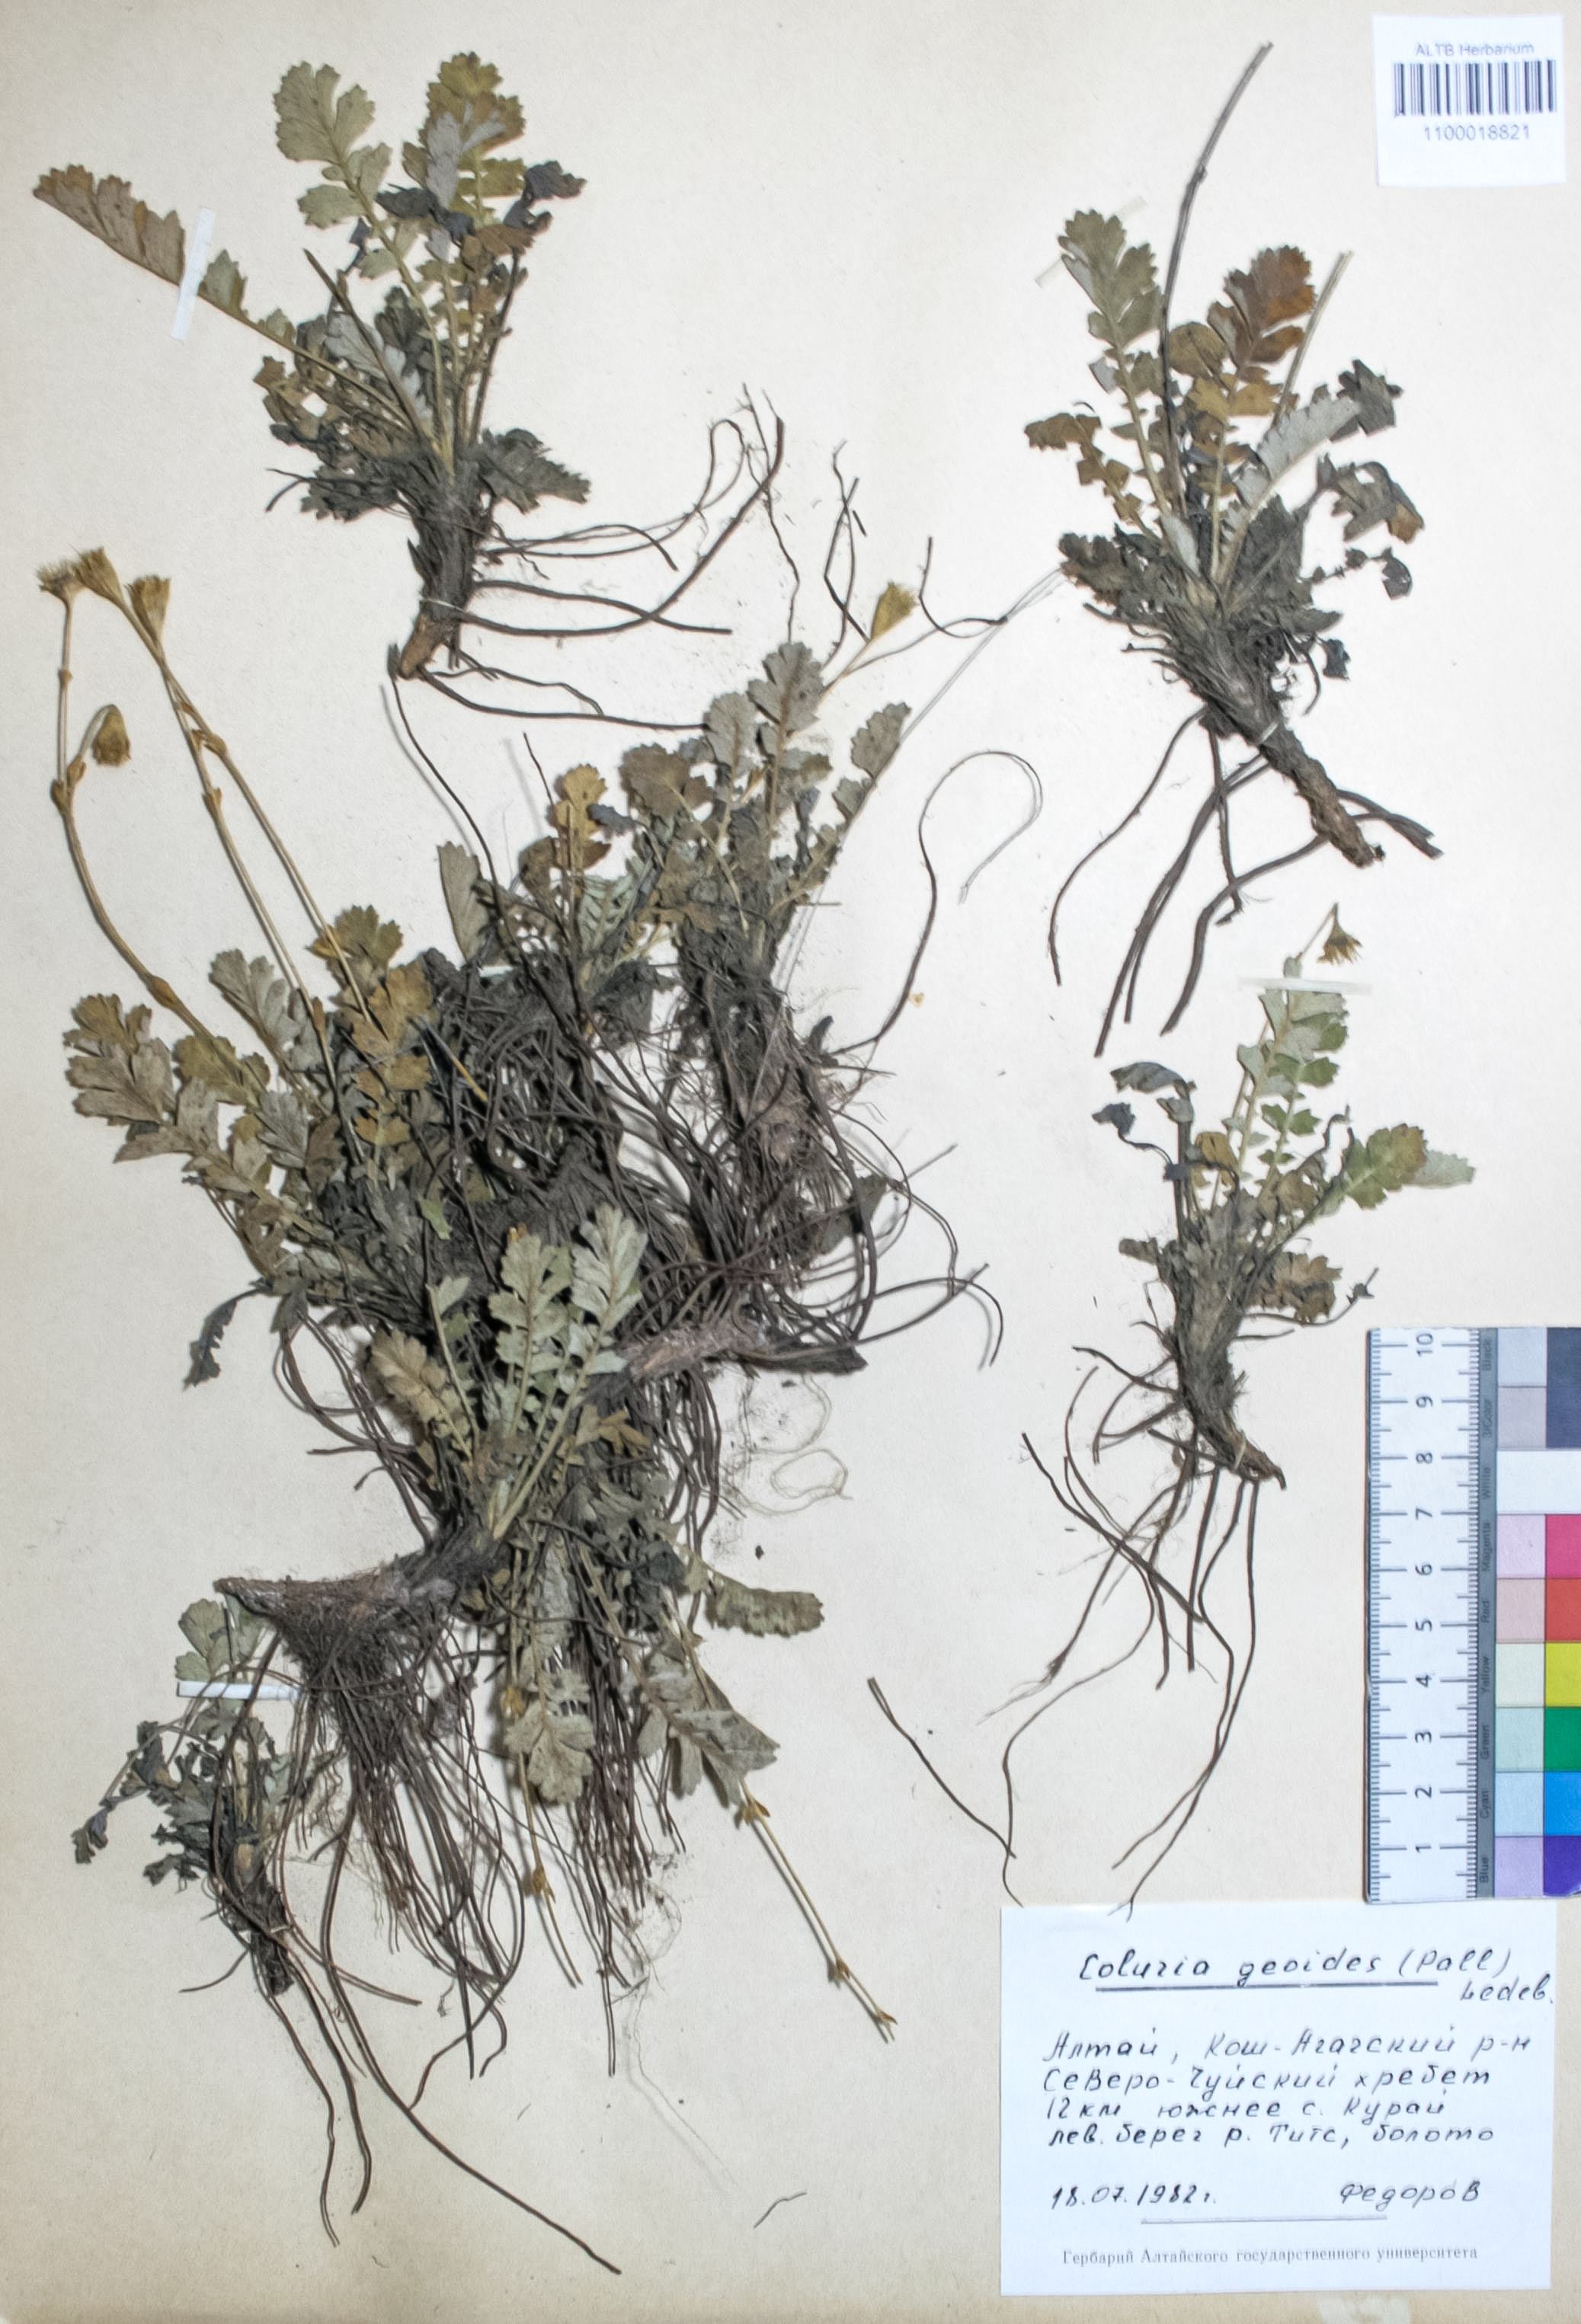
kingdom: Plantae
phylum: Tracheophyta
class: Magnoliopsida
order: Rosales
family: Rosaceae
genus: Geum
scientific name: Geum geoides
